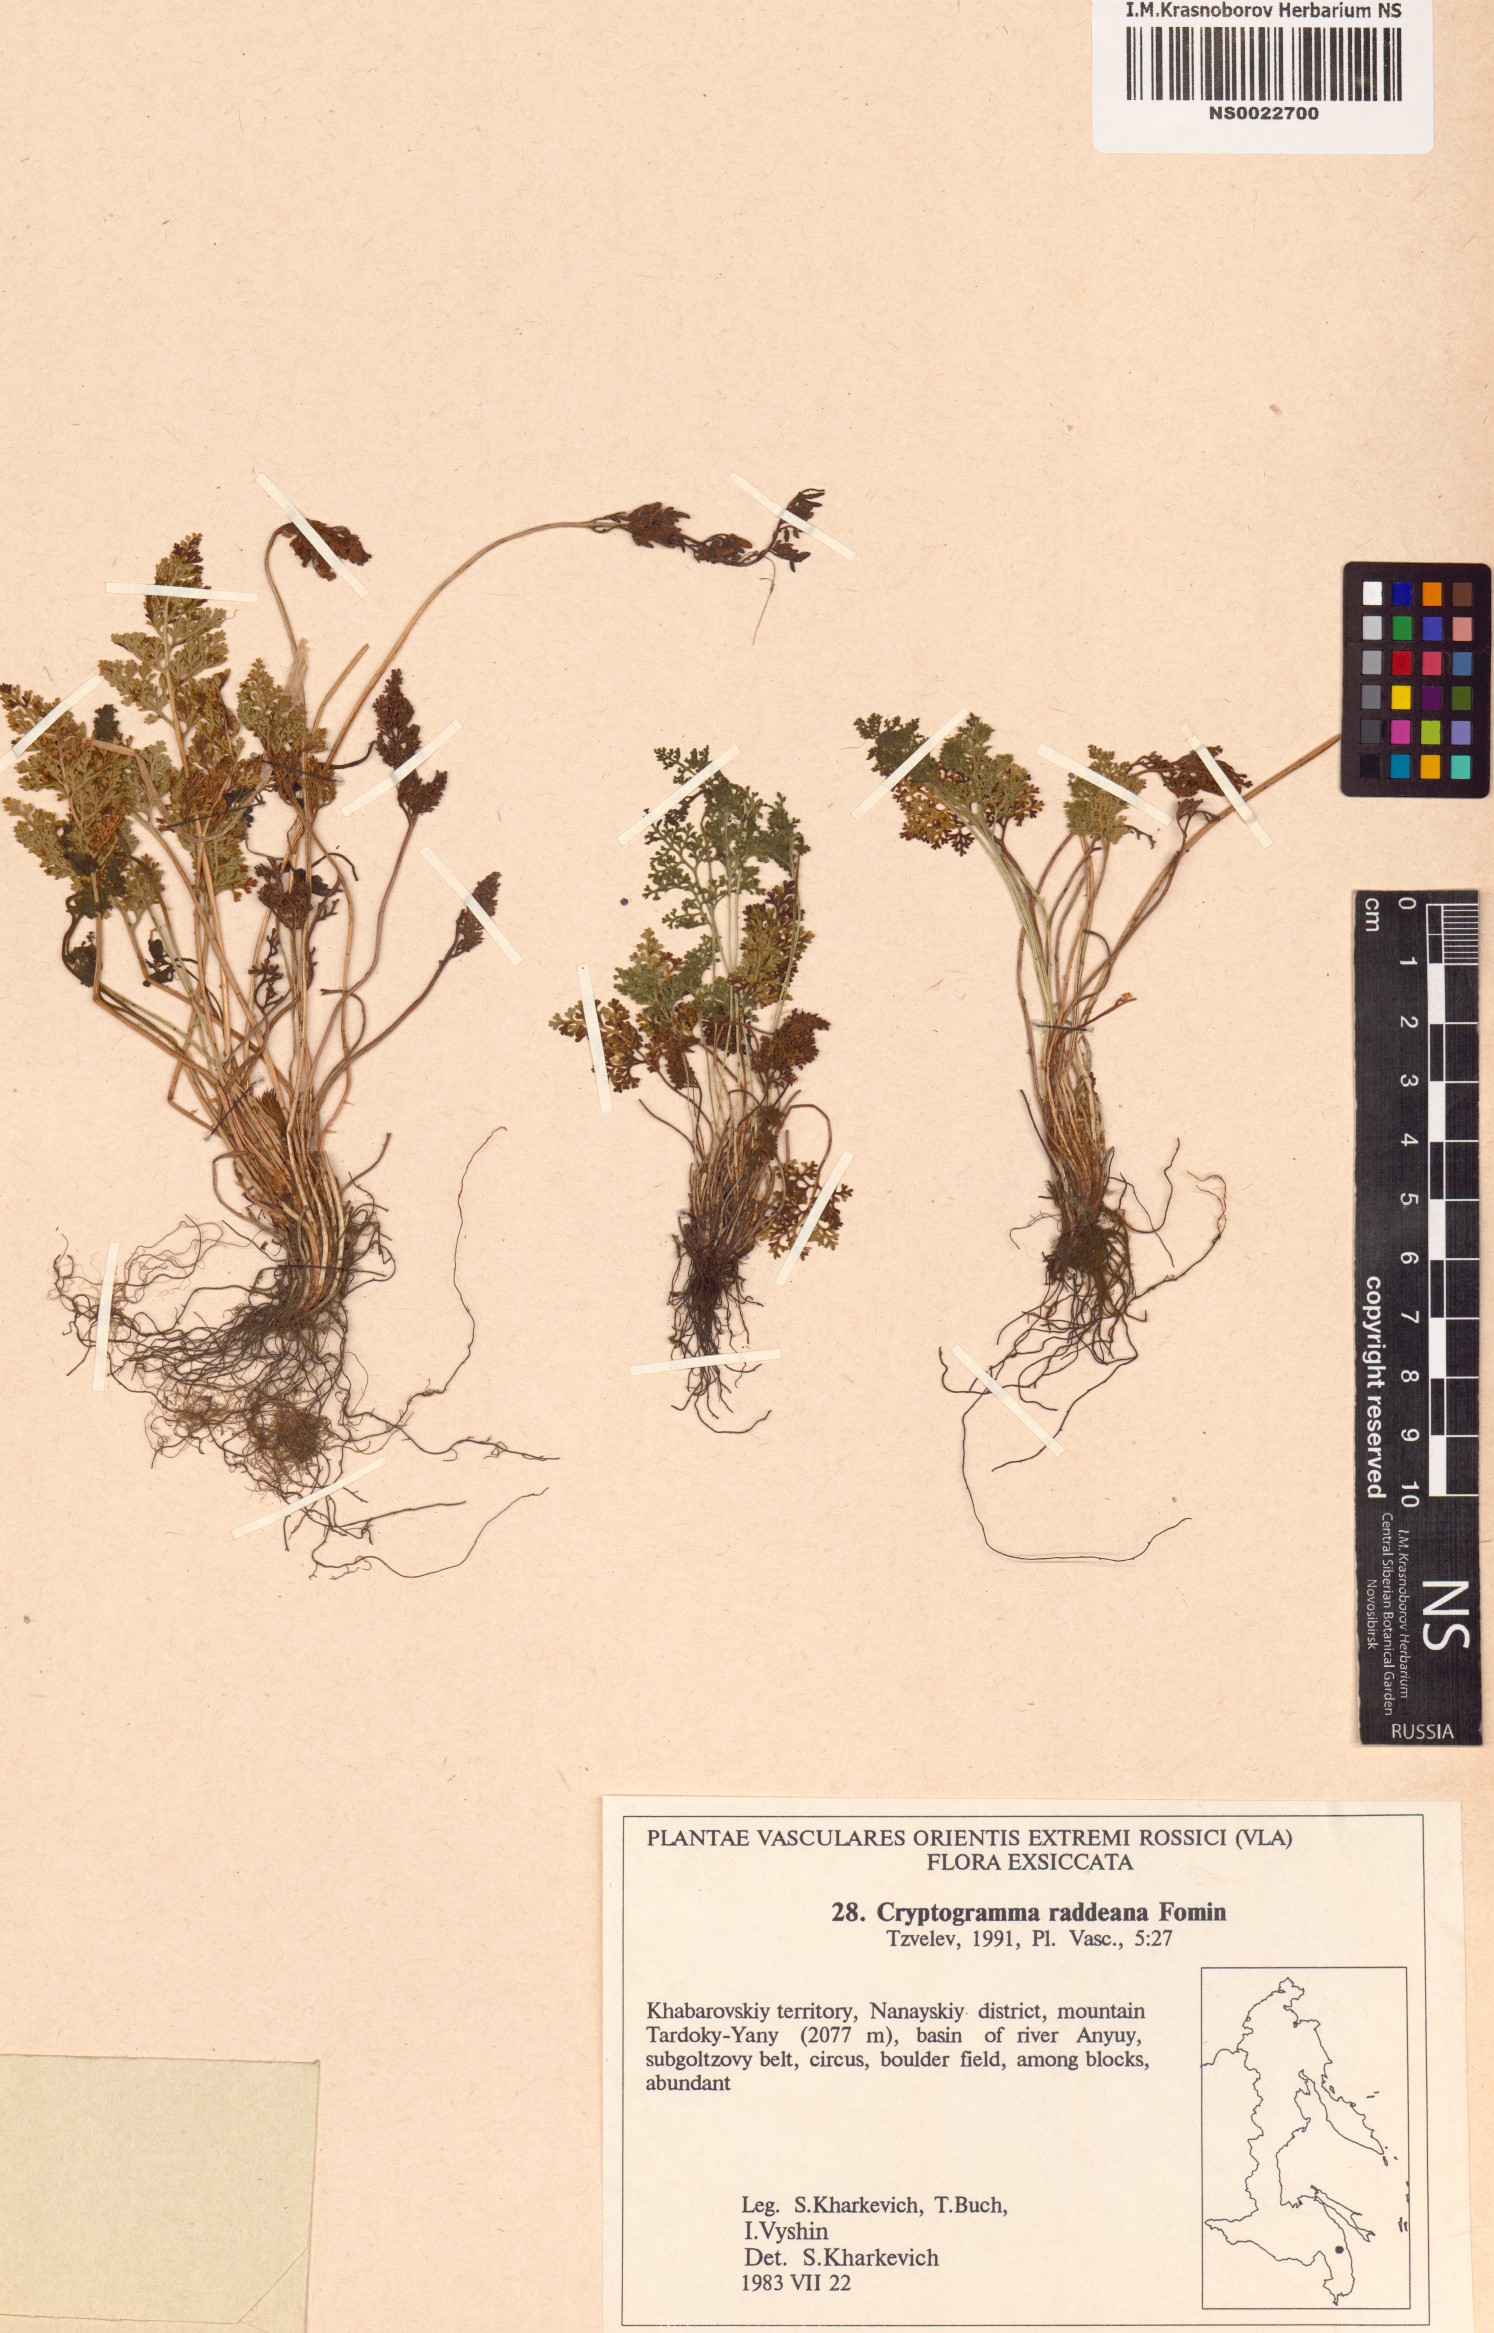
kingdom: Plantae
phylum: Tracheophyta
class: Polypodiopsida
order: Polypodiales
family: Pteridaceae
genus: Cryptogramma
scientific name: Cryptogramma brunoniana
